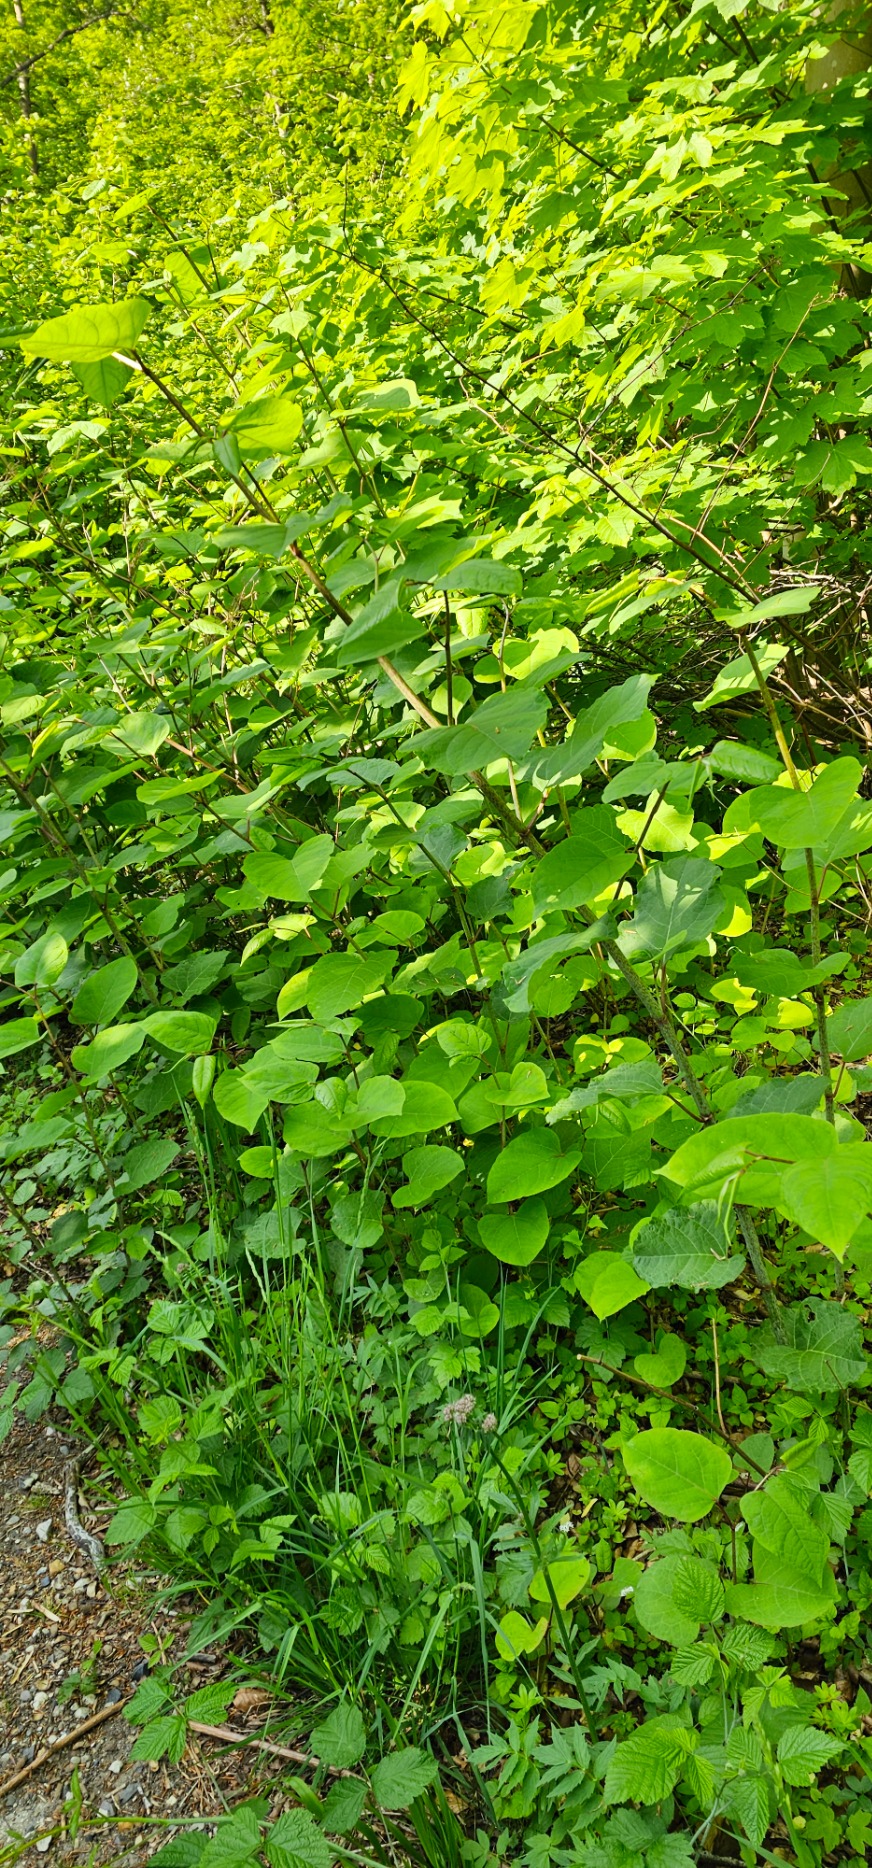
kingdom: Plantae
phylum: Tracheophyta
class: Magnoliopsida
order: Caryophyllales
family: Polygonaceae
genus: Reynoutria
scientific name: Reynoutria japonica
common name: Japan-pileurt
